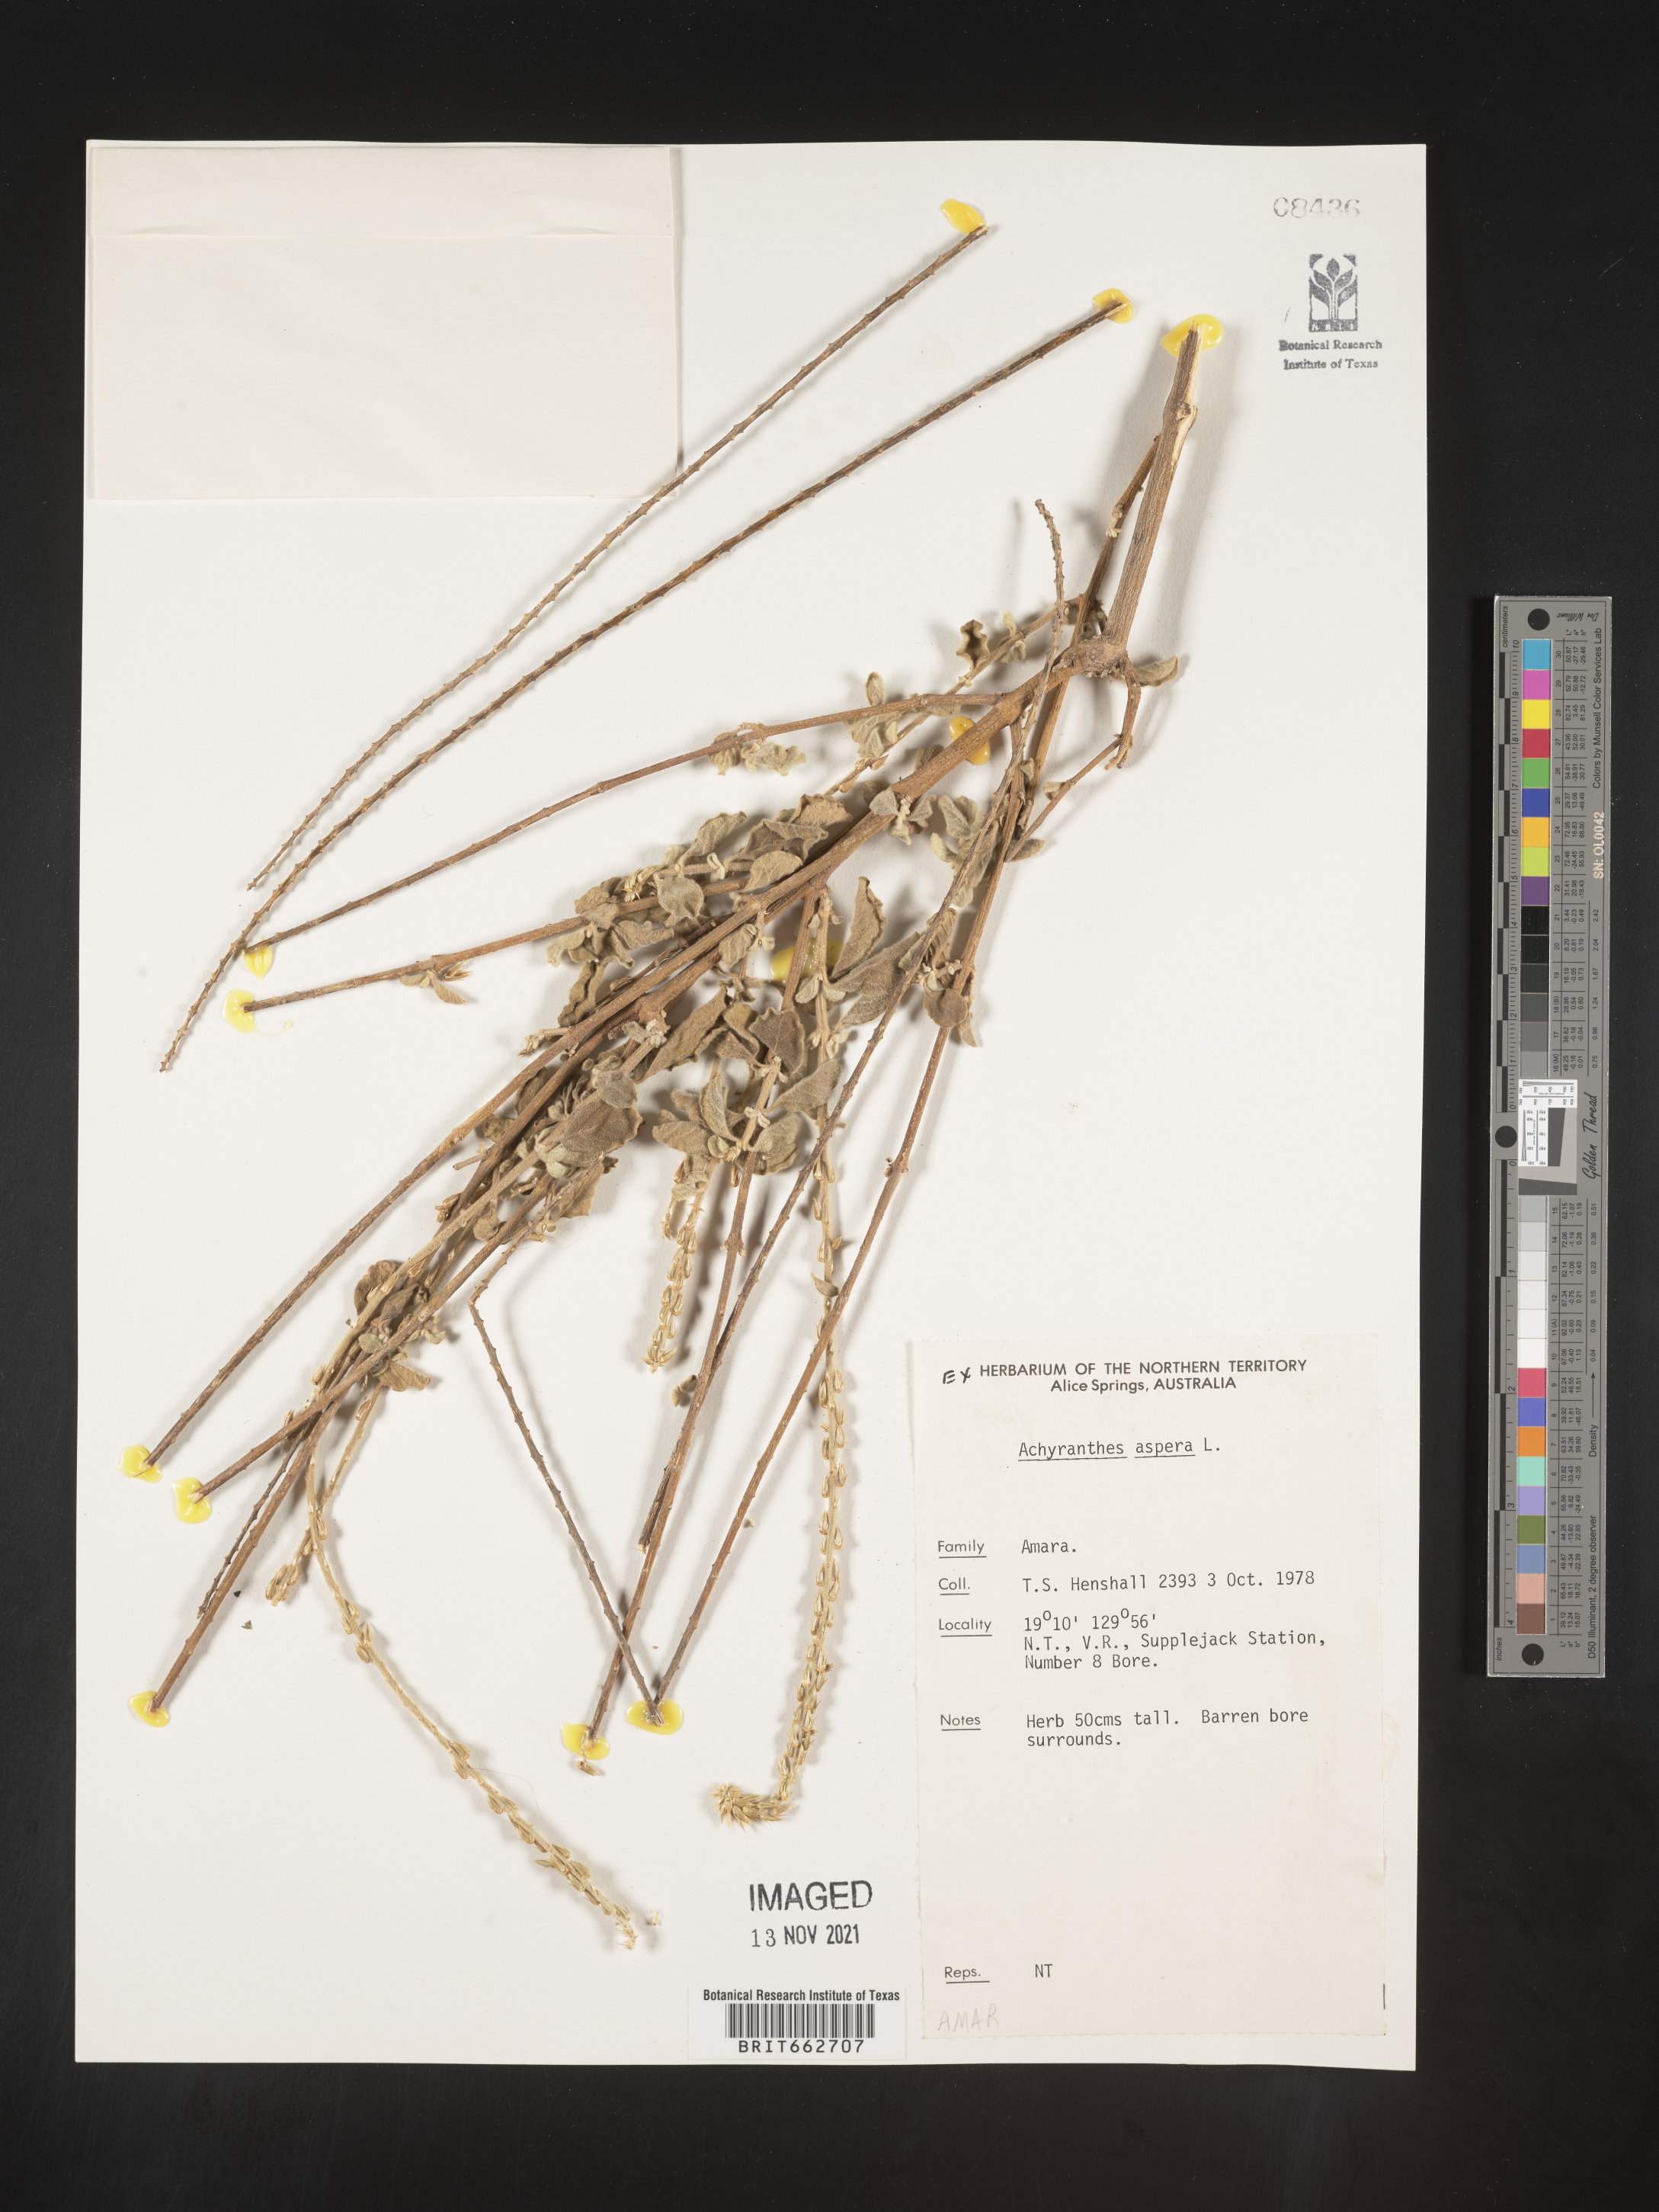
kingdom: Plantae
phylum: Tracheophyta
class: Magnoliopsida
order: Caryophyllales
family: Amaranthaceae
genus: Achyranthes
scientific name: Achyranthes
